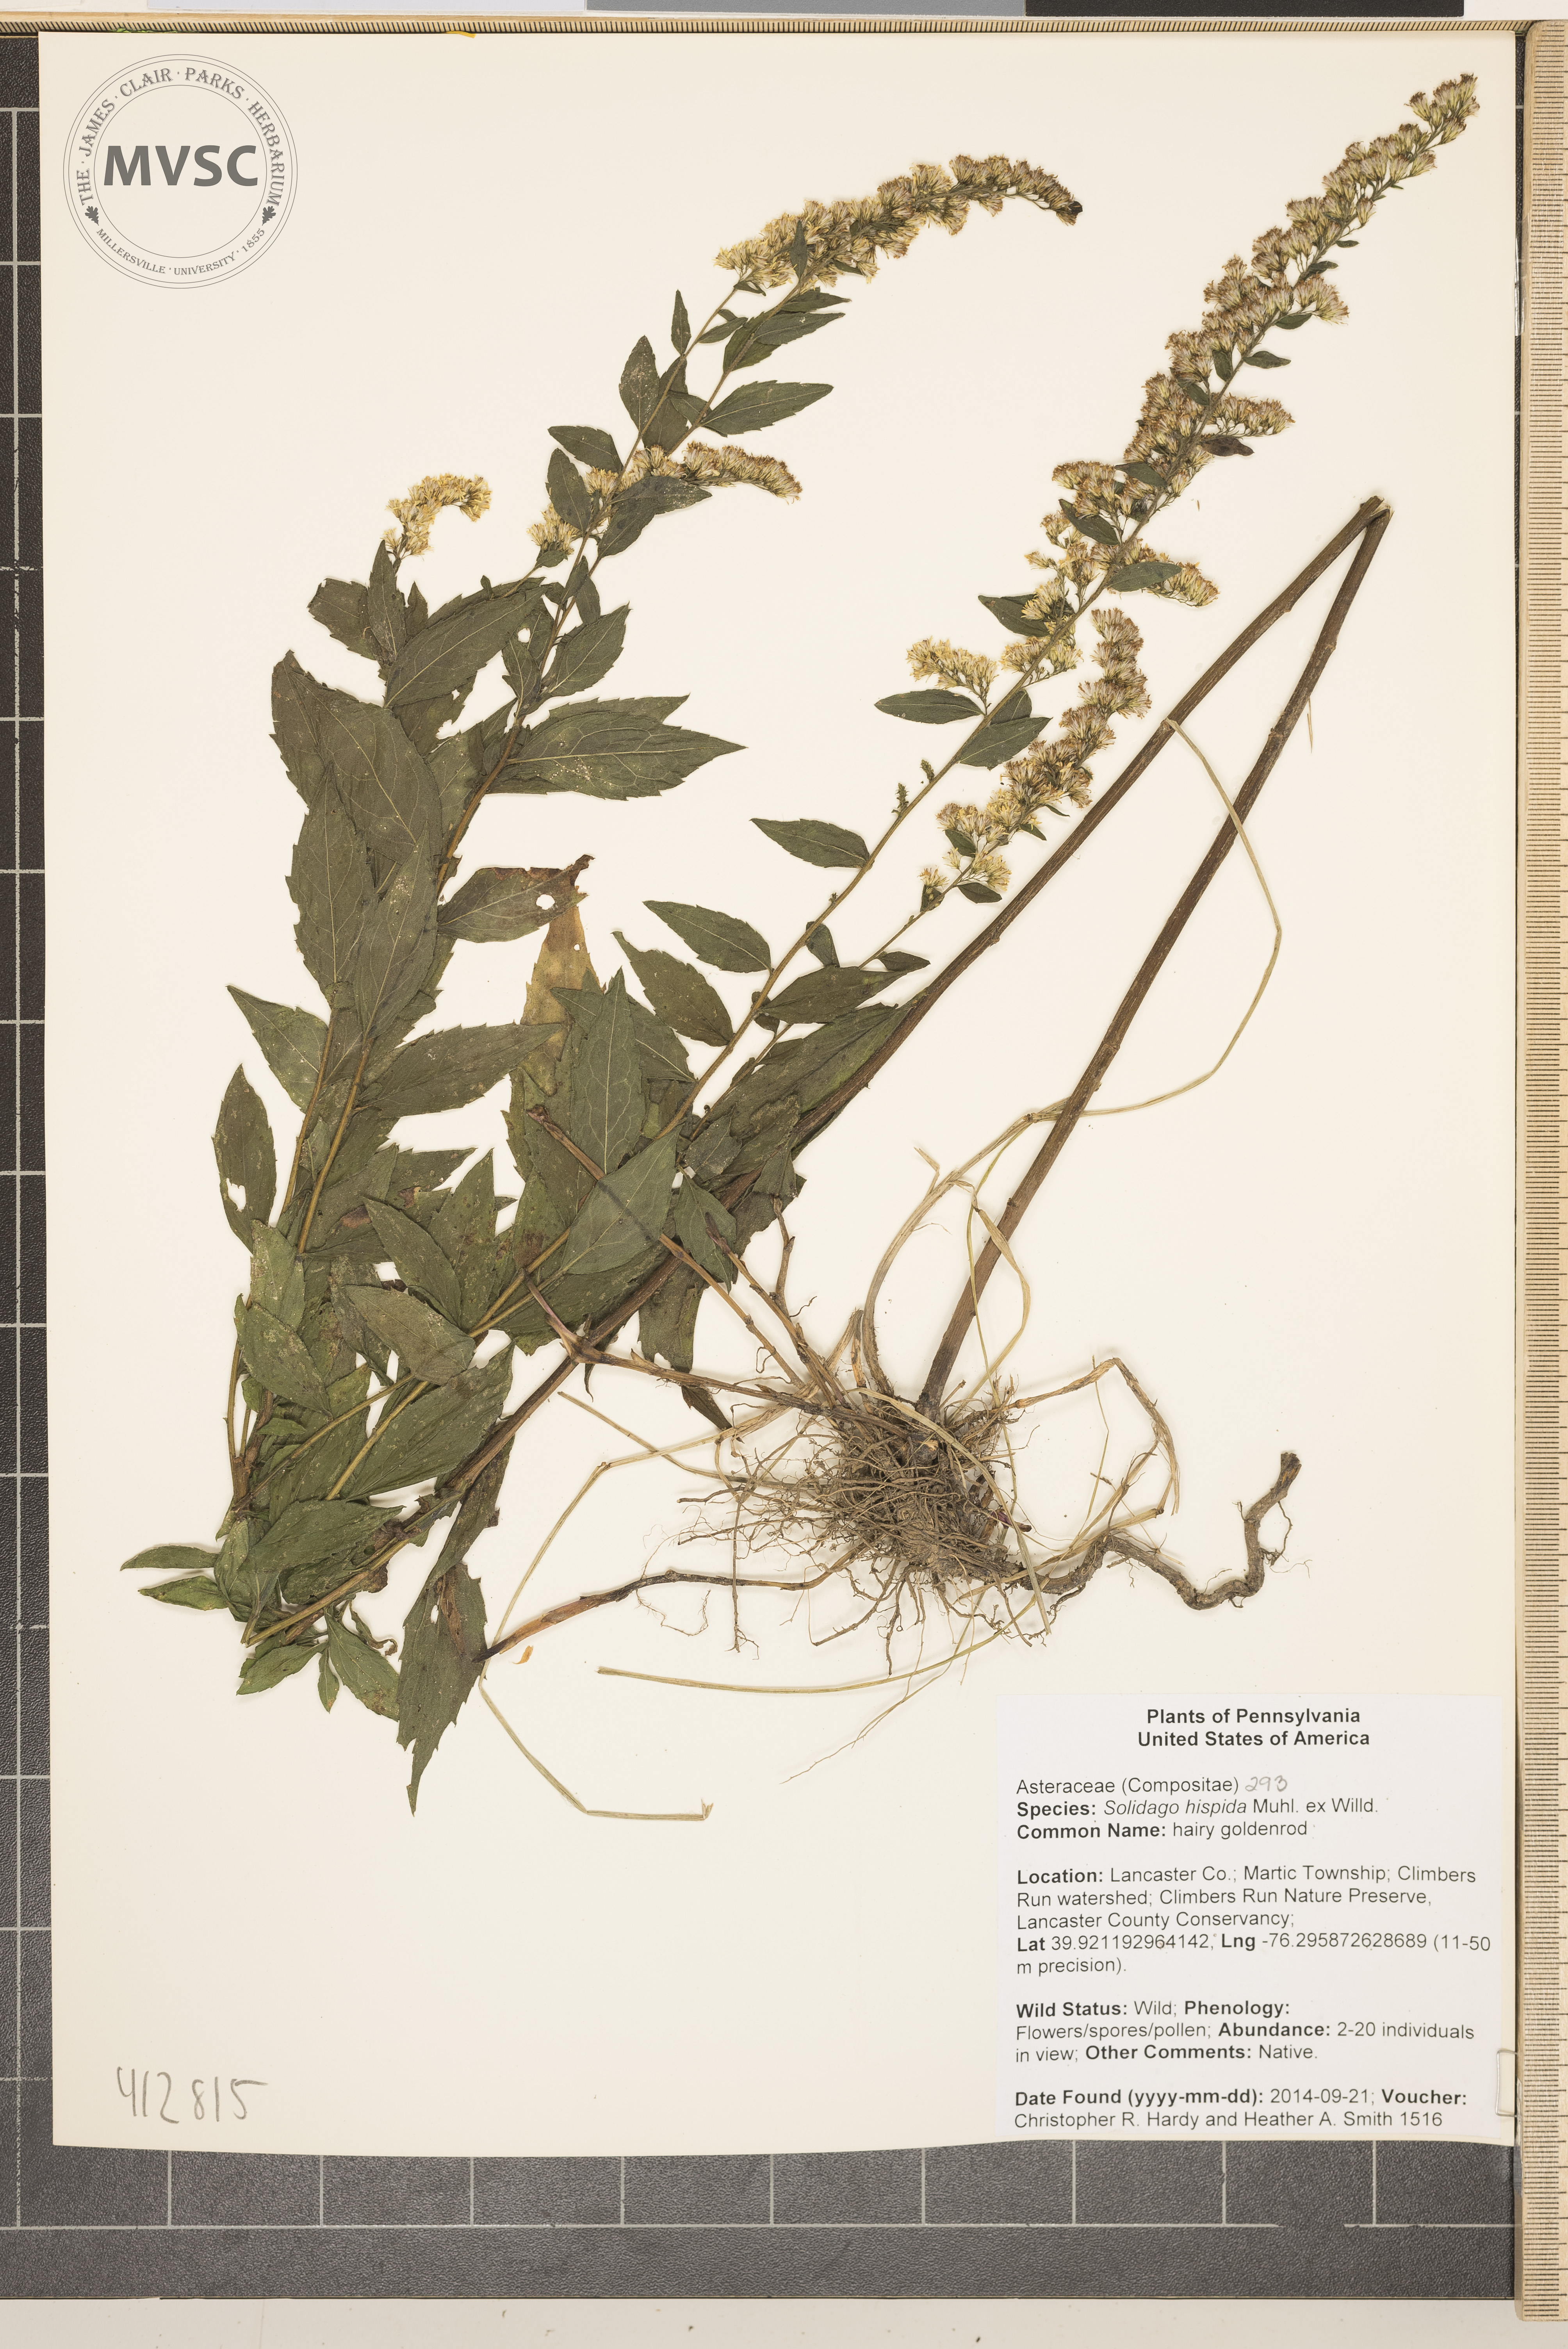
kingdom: Plantae
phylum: Tracheophyta
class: Magnoliopsida
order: Asterales
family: Asteraceae
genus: Solidago
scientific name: Solidago hispida
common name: hairy goldenrod
